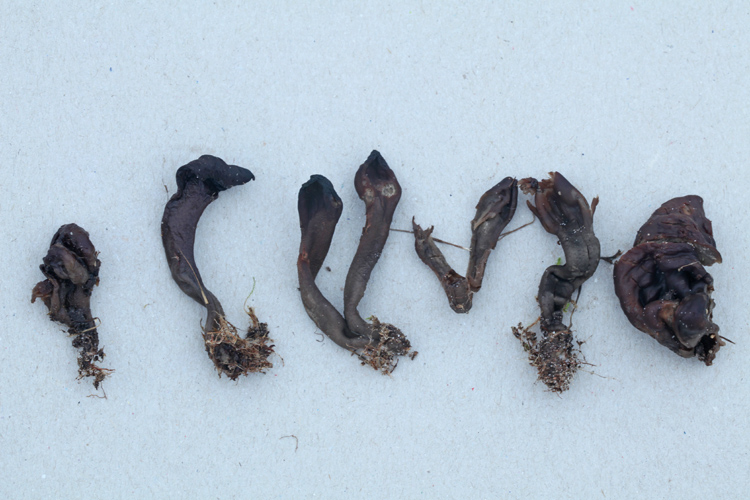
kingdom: Fungi
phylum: Ascomycota
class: Geoglossomycetes
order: Geoglossales
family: Geoglossaceae
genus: Geoglossum
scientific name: Geoglossum atropurpureum
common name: purpursort farvetunge
